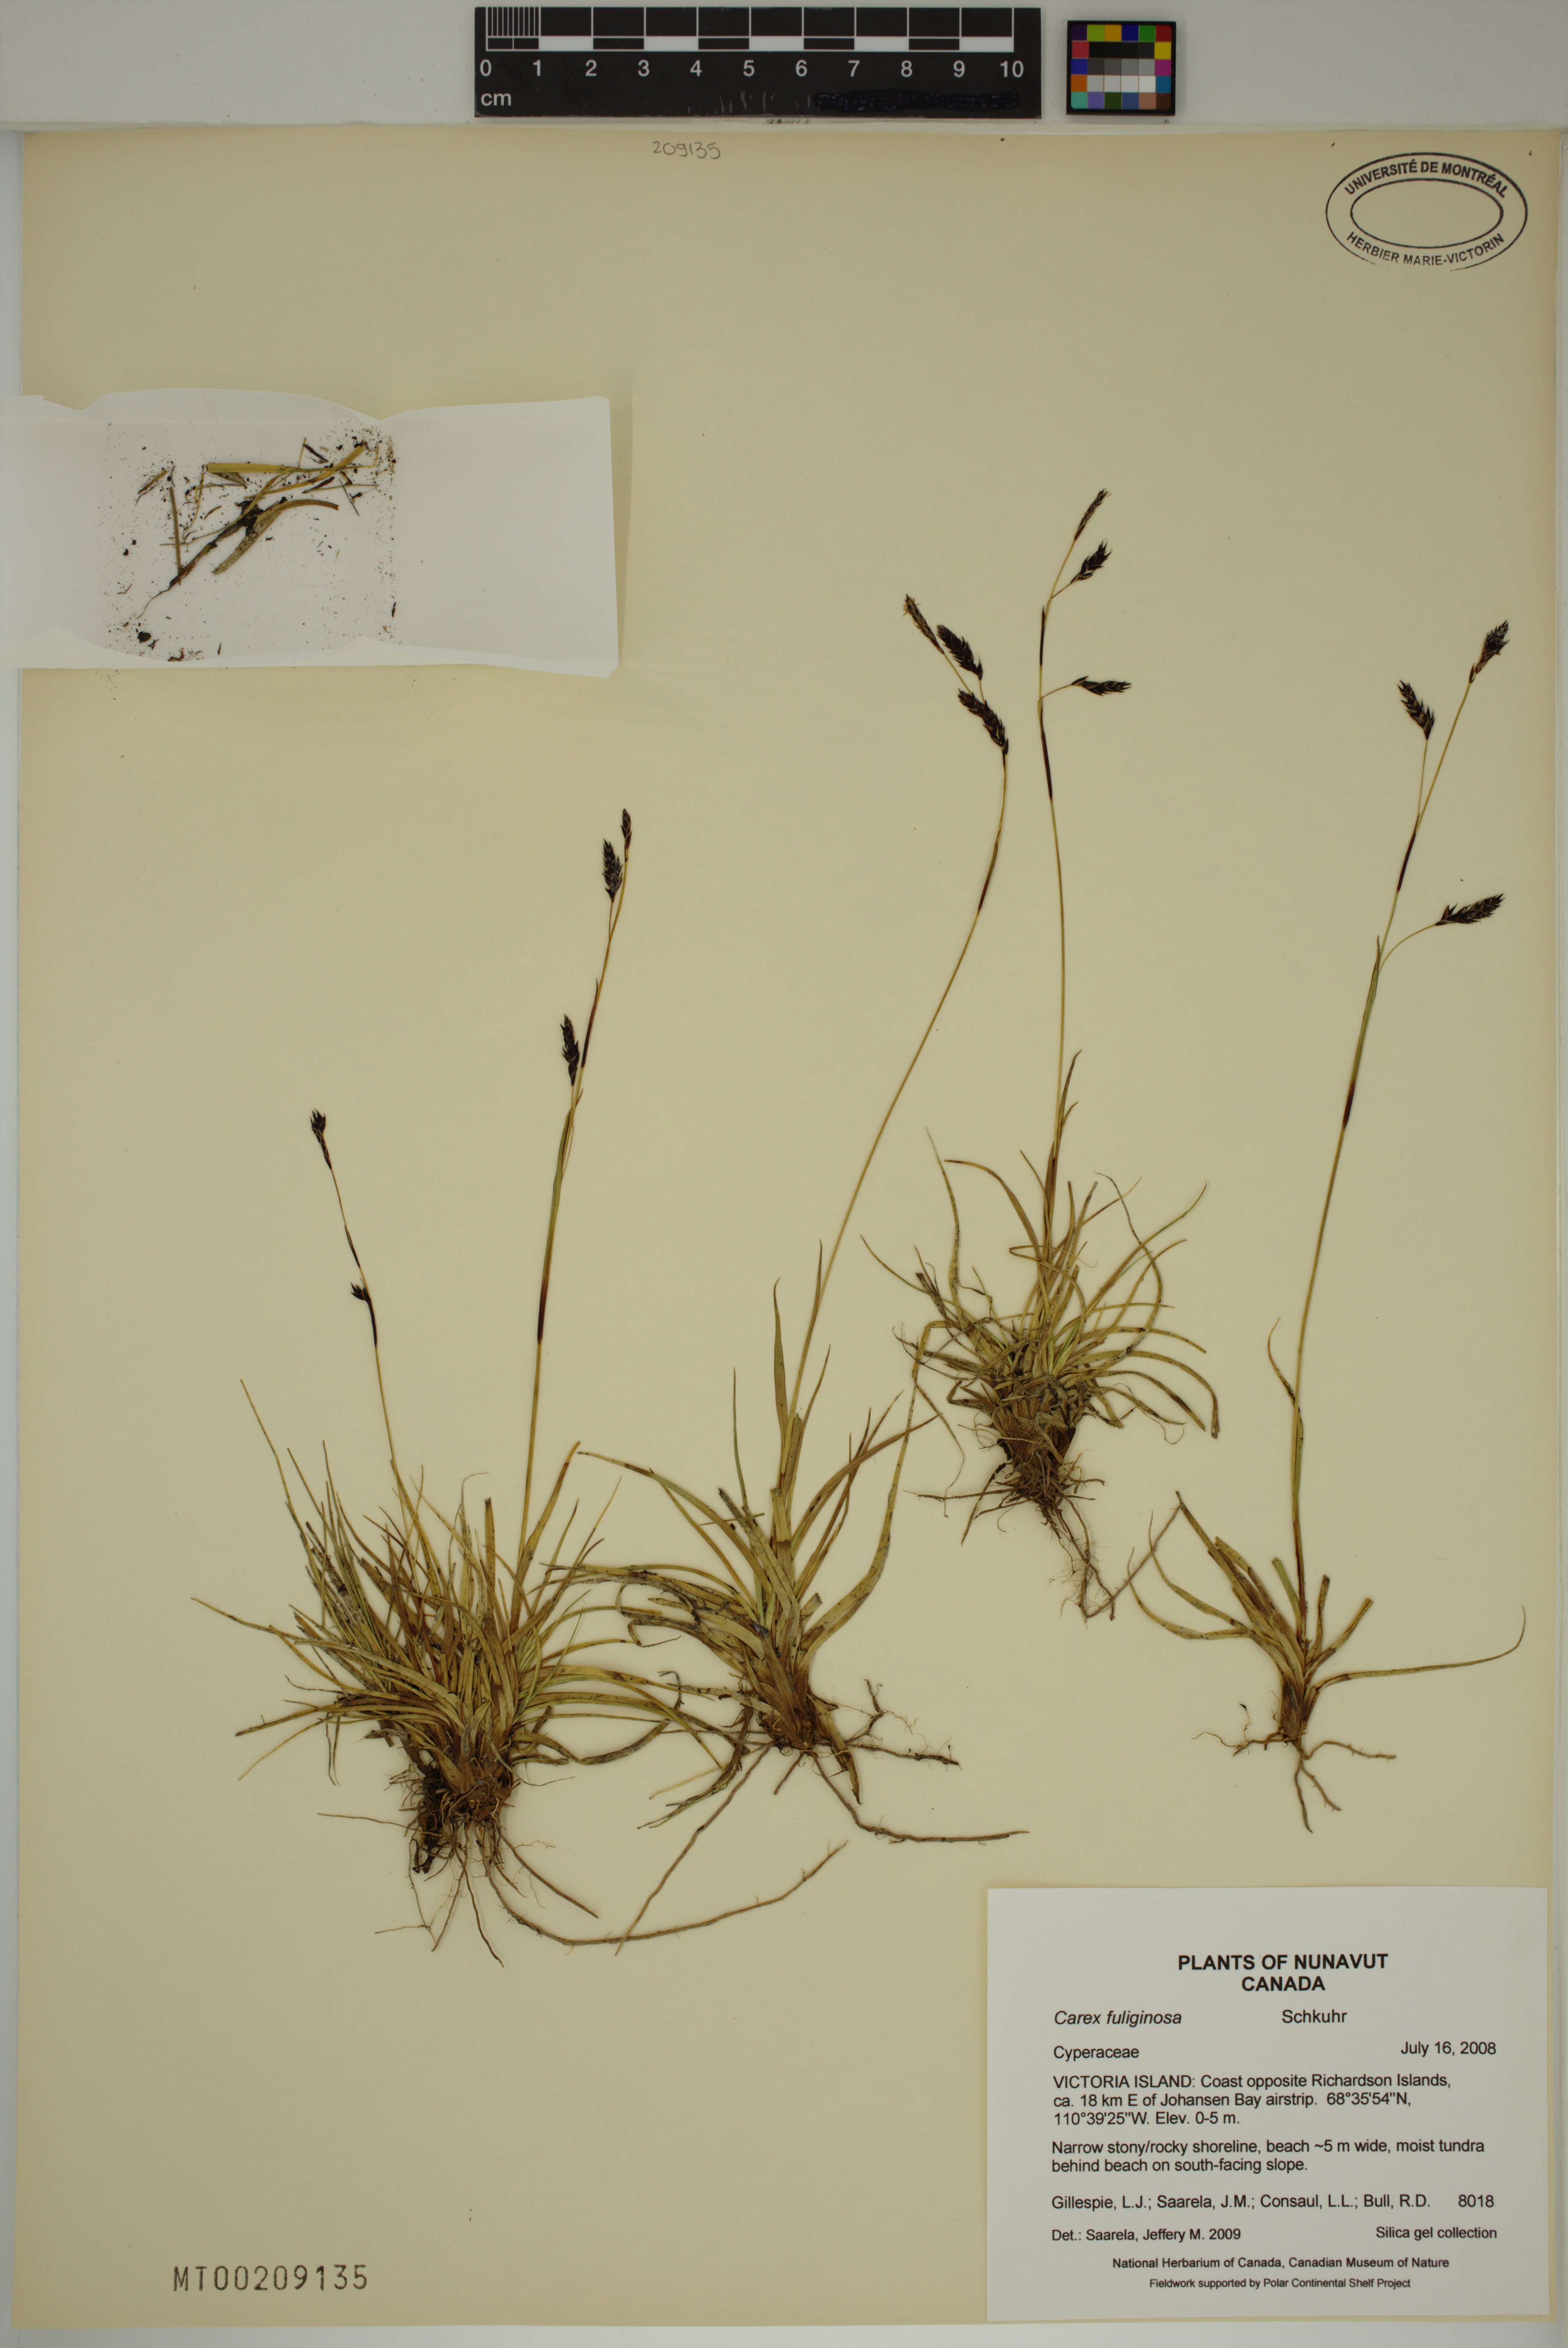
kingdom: Plantae
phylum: Tracheophyta
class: Liliopsida
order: Poales
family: Cyperaceae
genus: Carex
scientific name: Carex fuliginosa
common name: Few-flowered sedge
